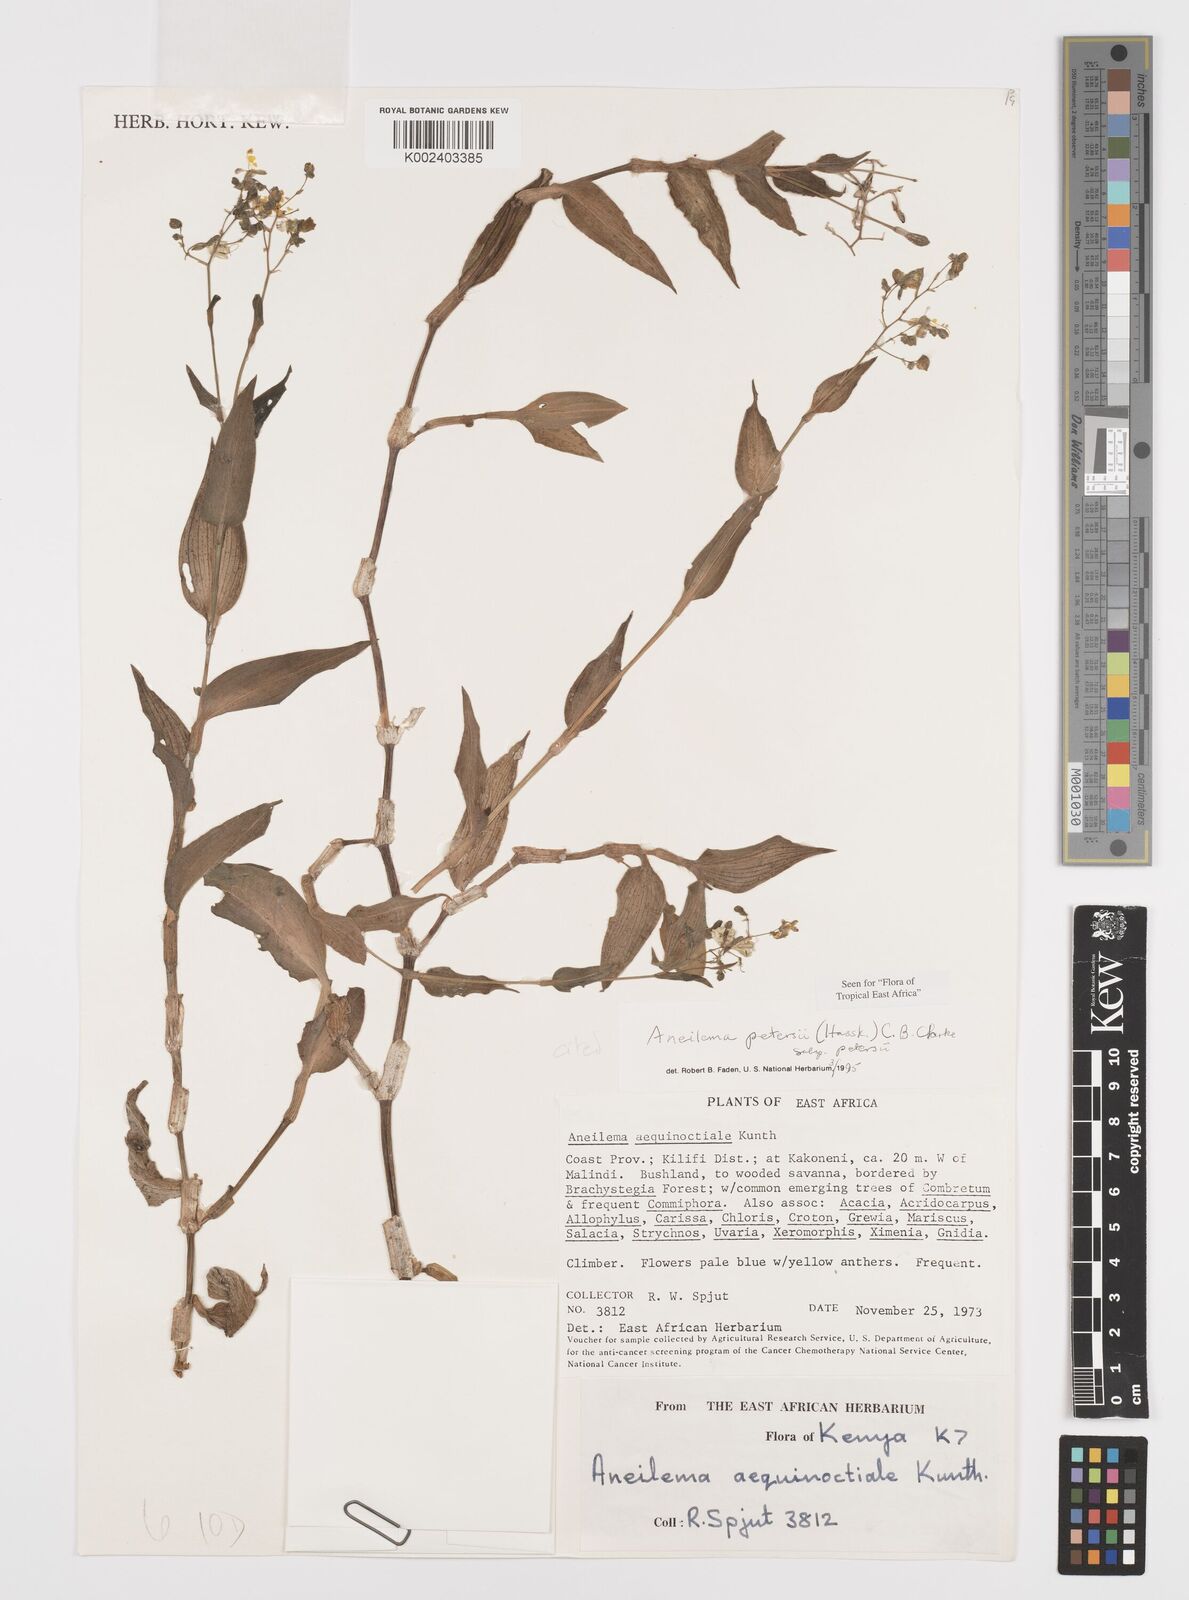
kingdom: Plantae
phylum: Tracheophyta
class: Liliopsida
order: Commelinales
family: Commelinaceae
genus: Aneilema
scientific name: Aneilema petersii
